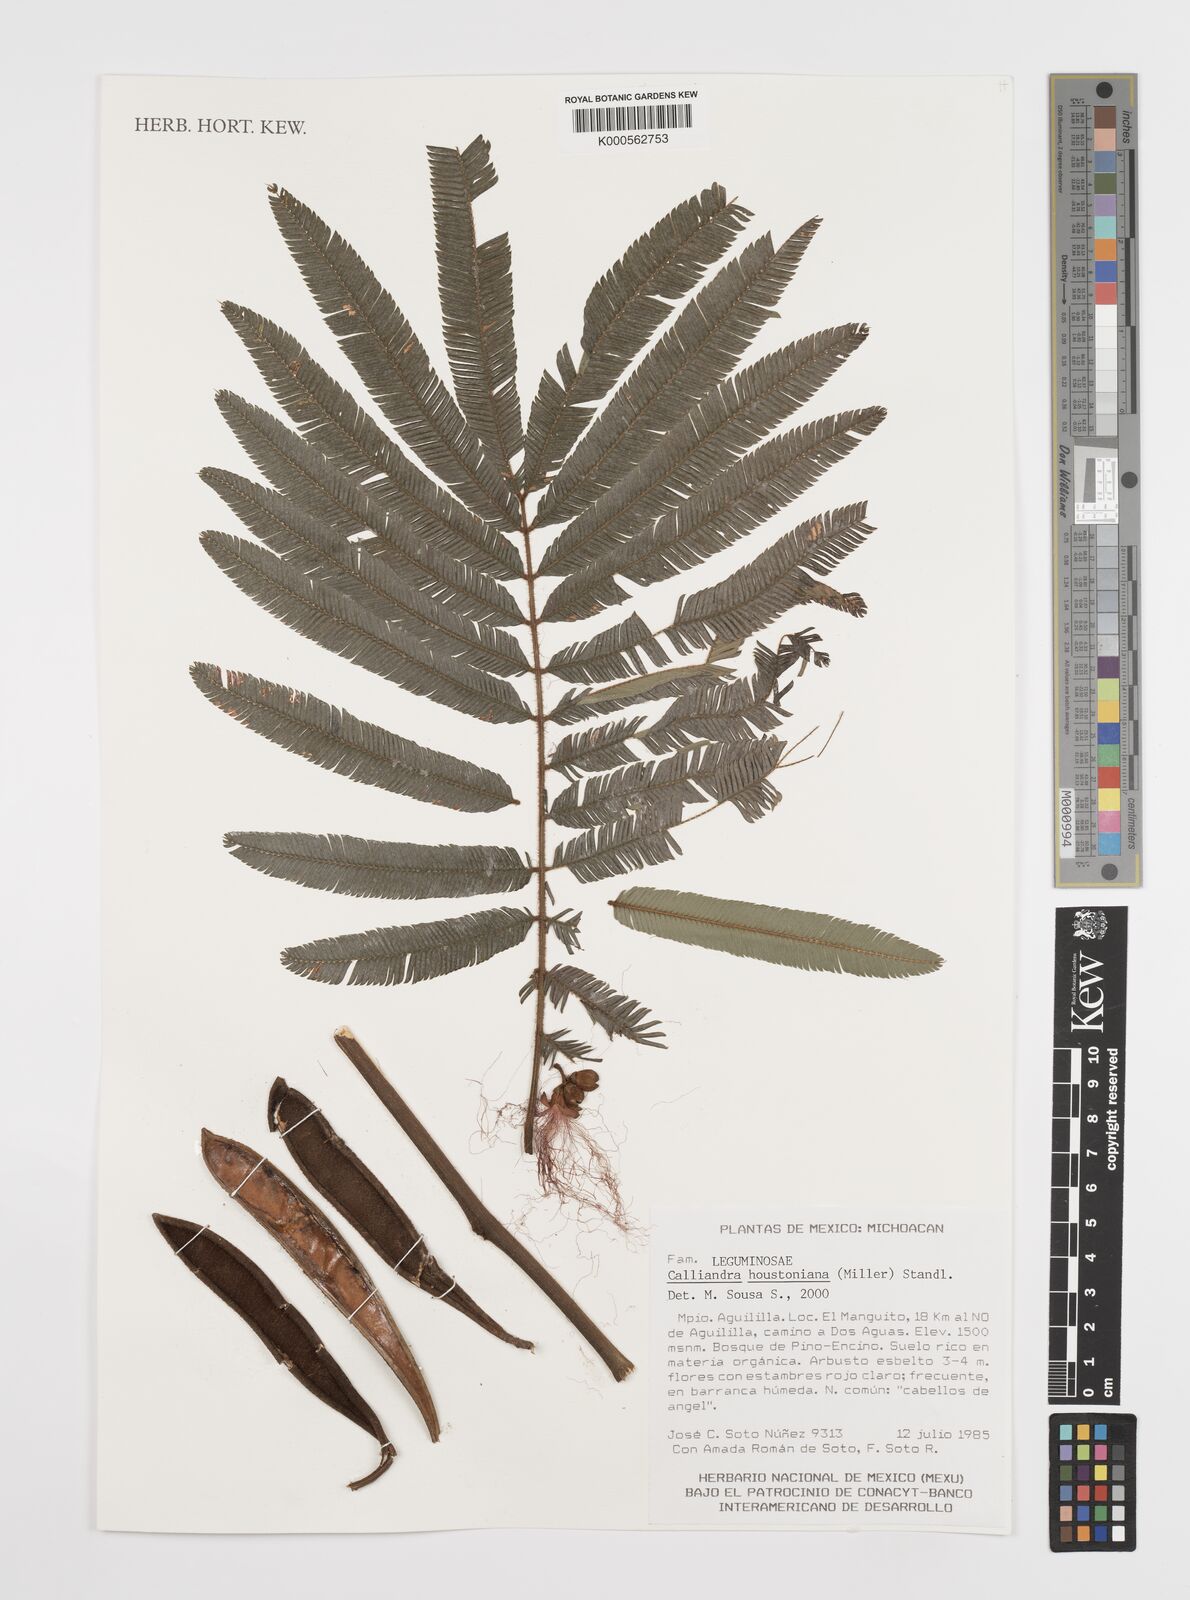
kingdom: Plantae
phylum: Tracheophyta
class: Magnoliopsida
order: Fabales
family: Fabaceae
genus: Calliandra
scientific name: Calliandra houstoniana
